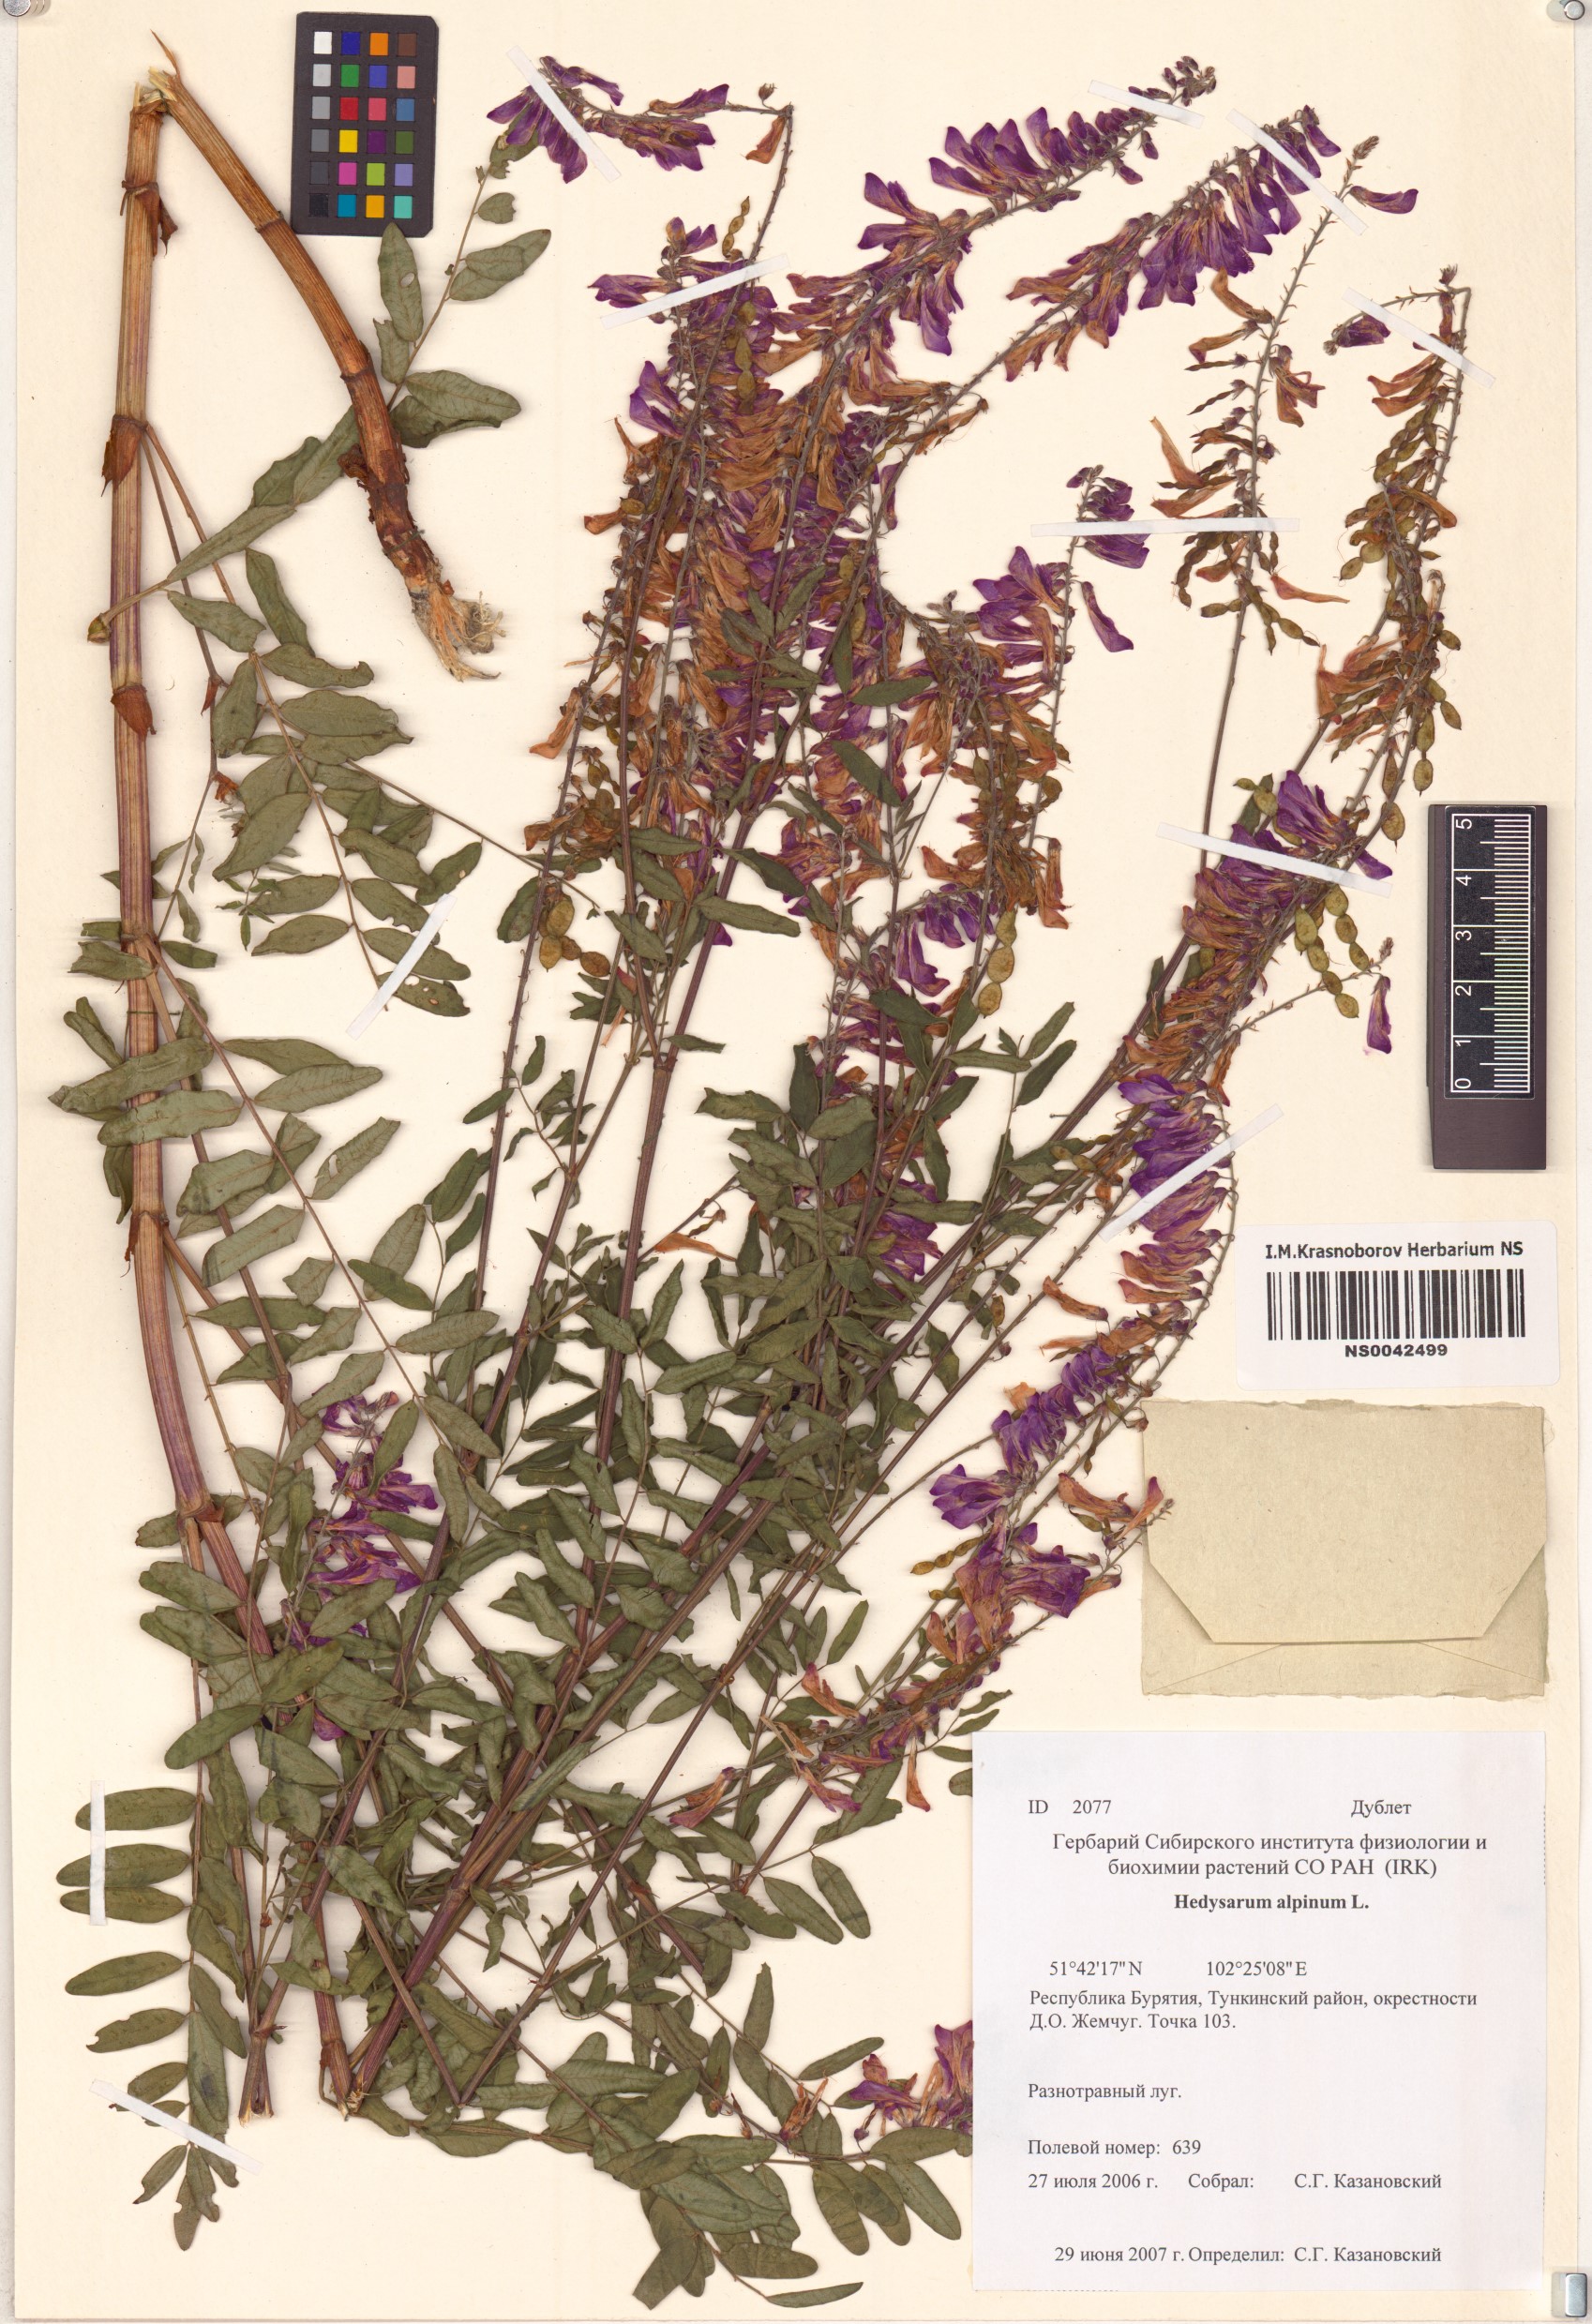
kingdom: Plantae
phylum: Tracheophyta
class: Magnoliopsida
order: Fabales
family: Fabaceae
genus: Hedysarum
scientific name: Hedysarum alpinum
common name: Alpine sweet-vetch
